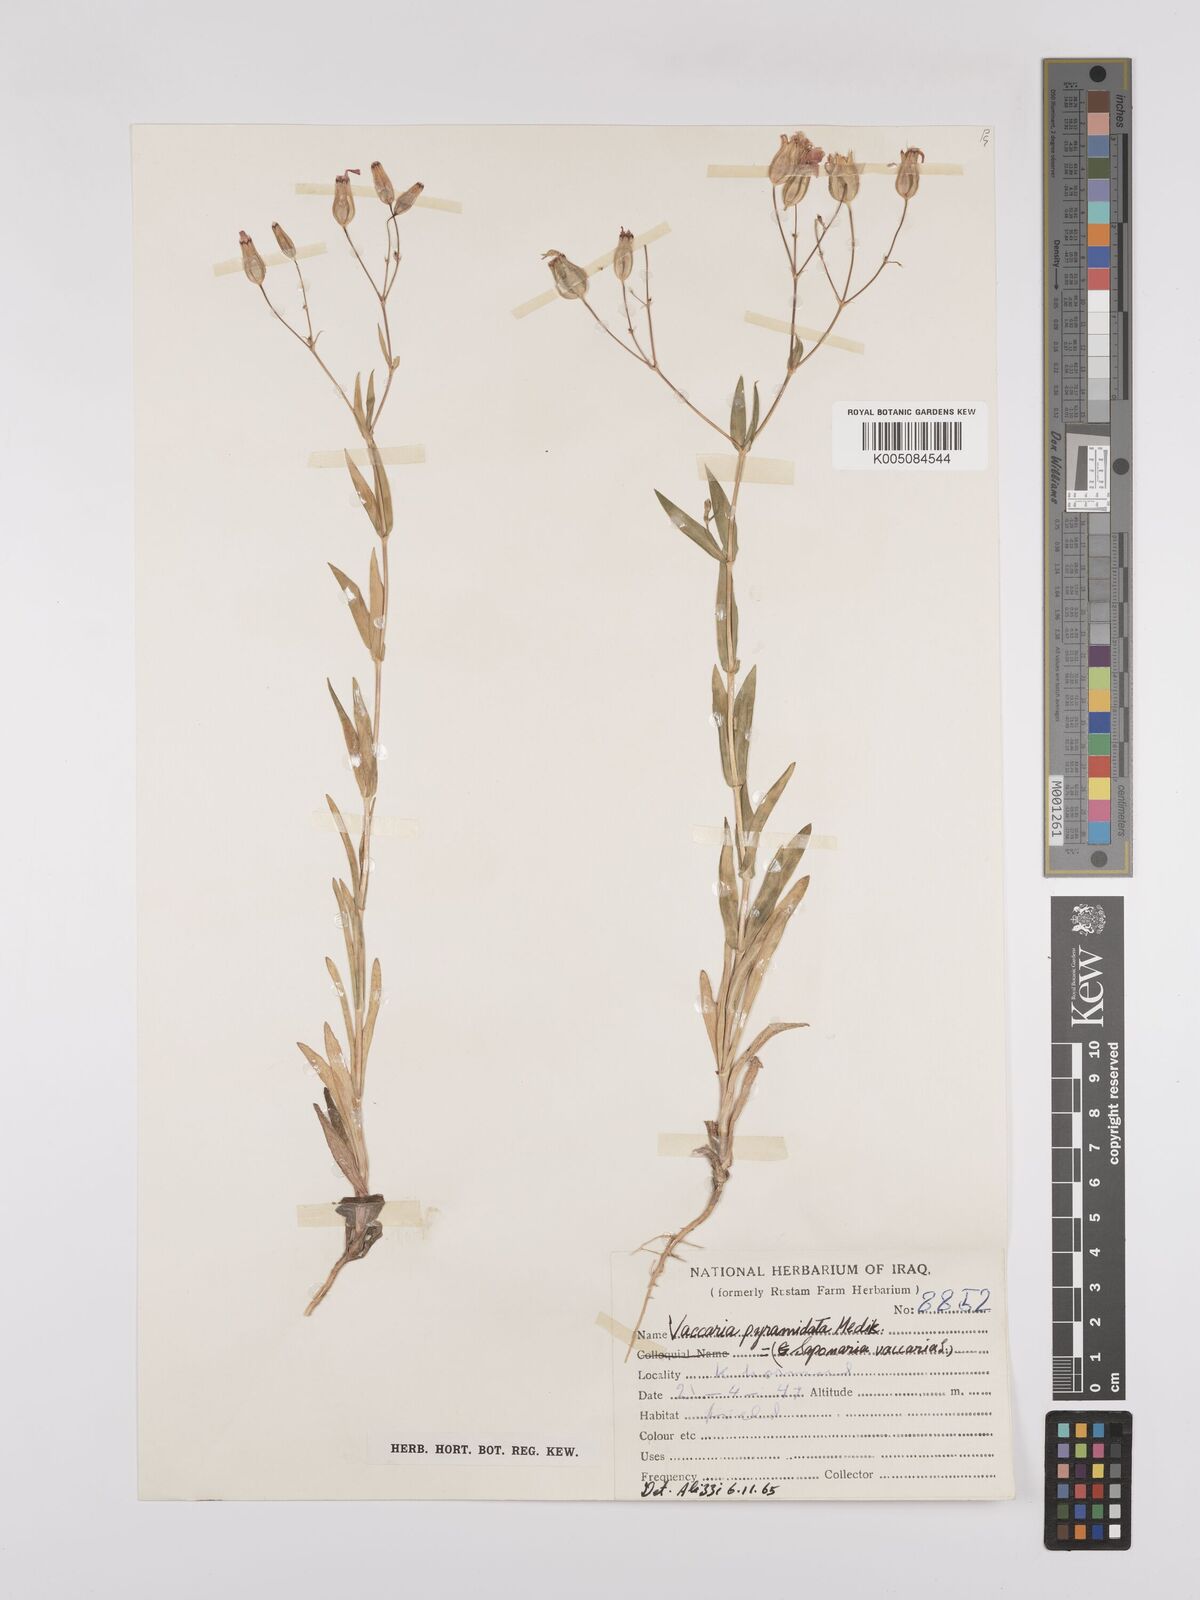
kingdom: Plantae
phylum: Tracheophyta
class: Magnoliopsida
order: Caryophyllales
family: Caryophyllaceae
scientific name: Caryophyllaceae
